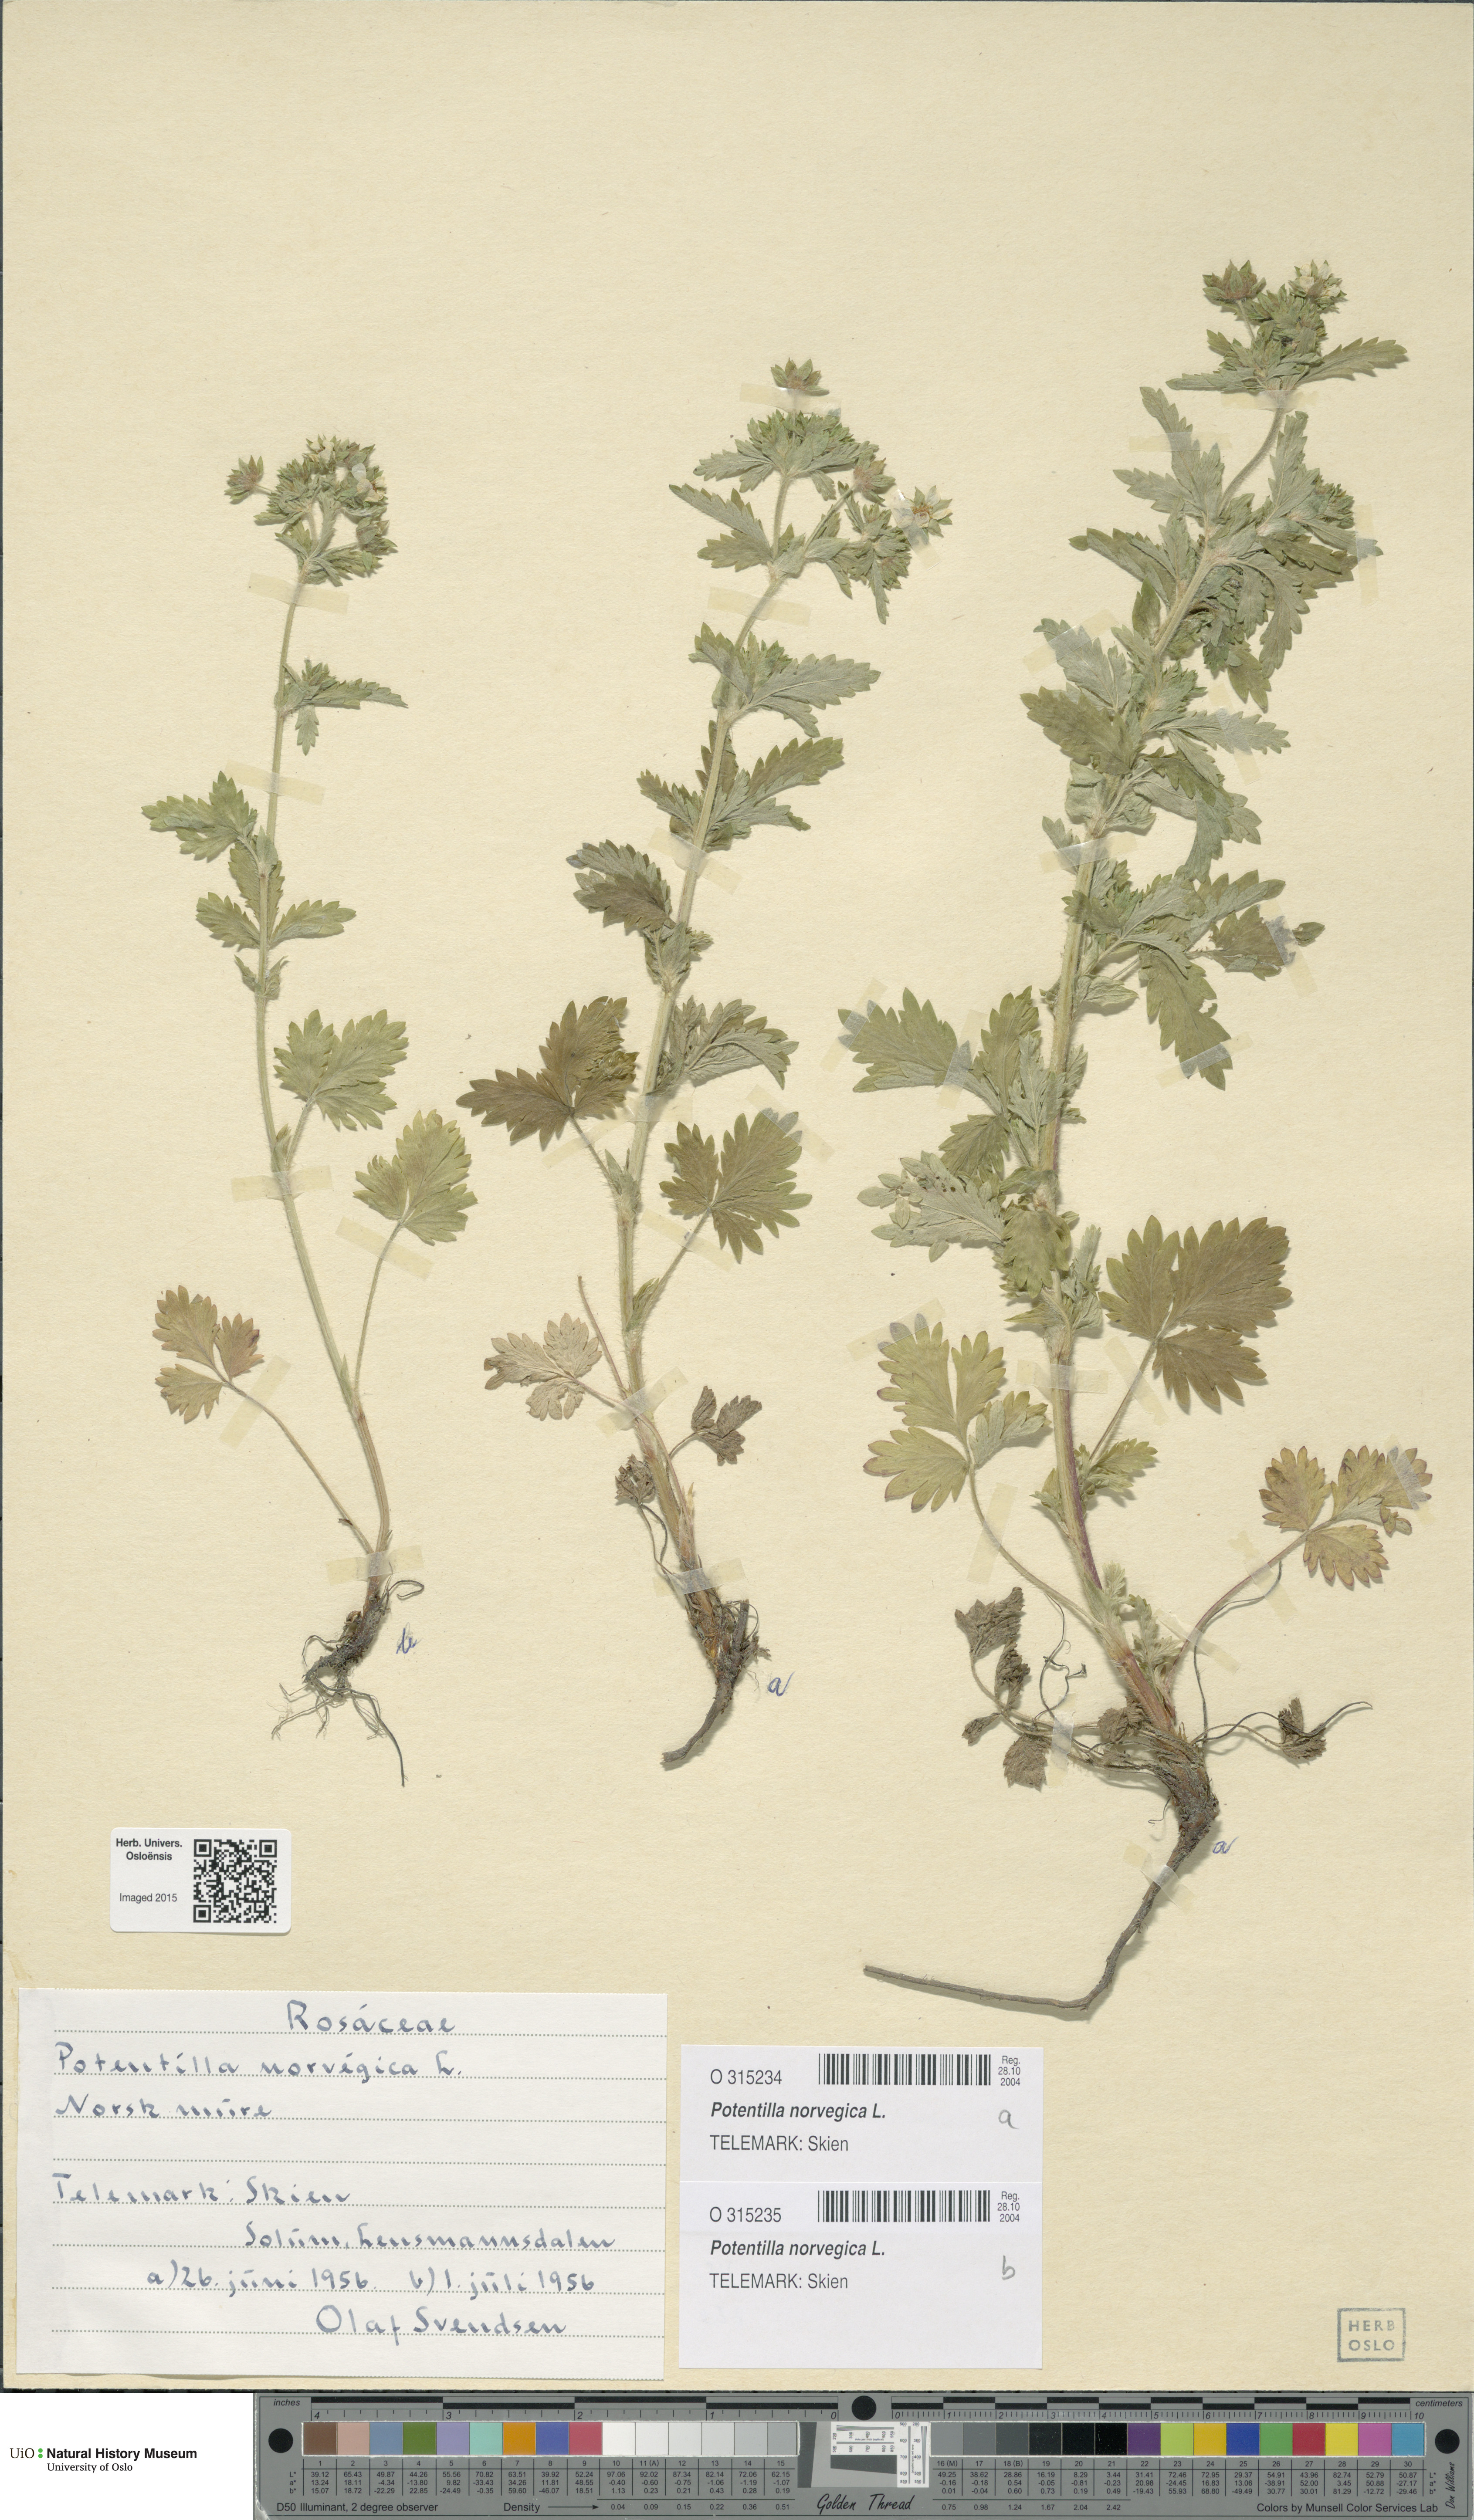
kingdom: Plantae
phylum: Tracheophyta
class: Magnoliopsida
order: Rosales
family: Rosaceae
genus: Potentilla
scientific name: Potentilla norvegica
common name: Ternate-leaved cinquefoil
